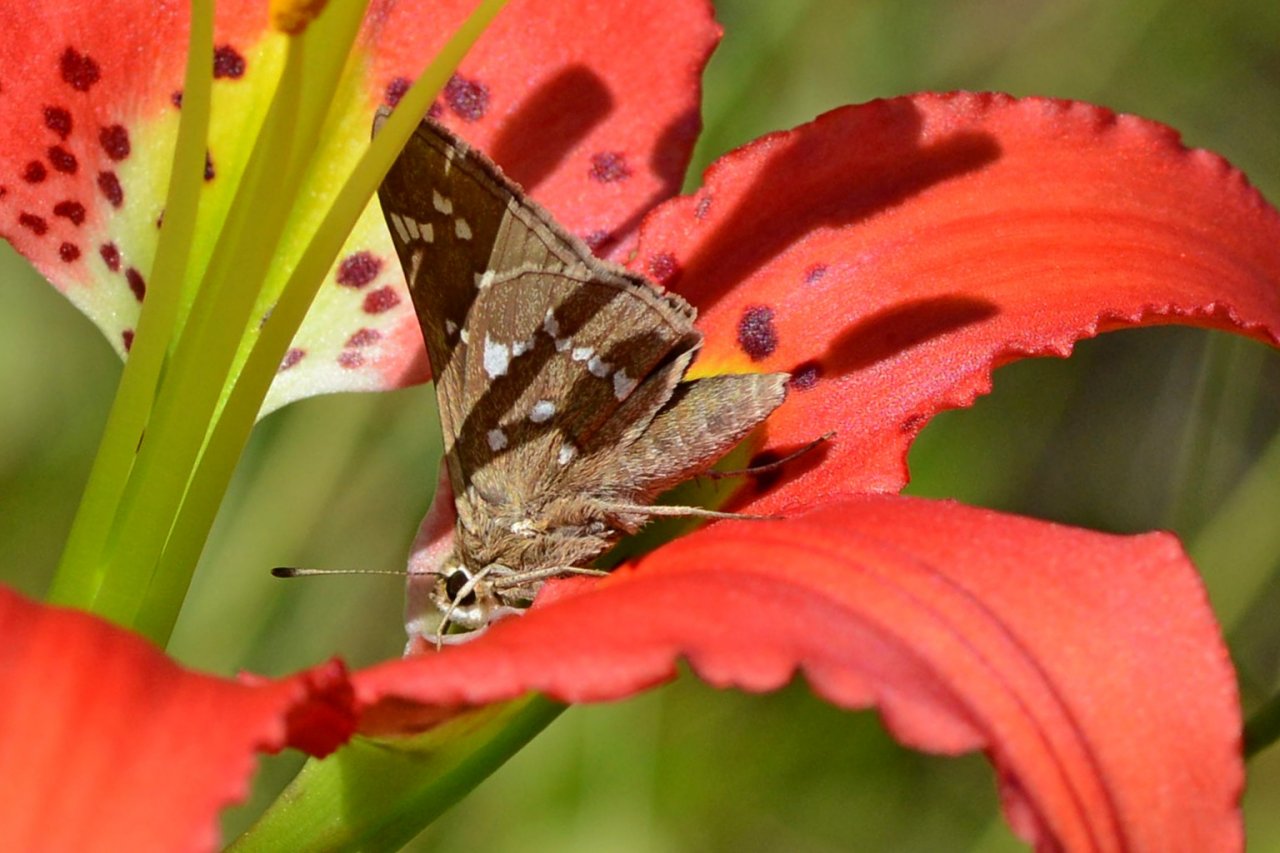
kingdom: Animalia
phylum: Arthropoda
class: Insecta
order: Lepidoptera
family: Hesperiidae
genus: Atrytonopsis
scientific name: Atrytonopsis loammi
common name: Loammi Skipper
